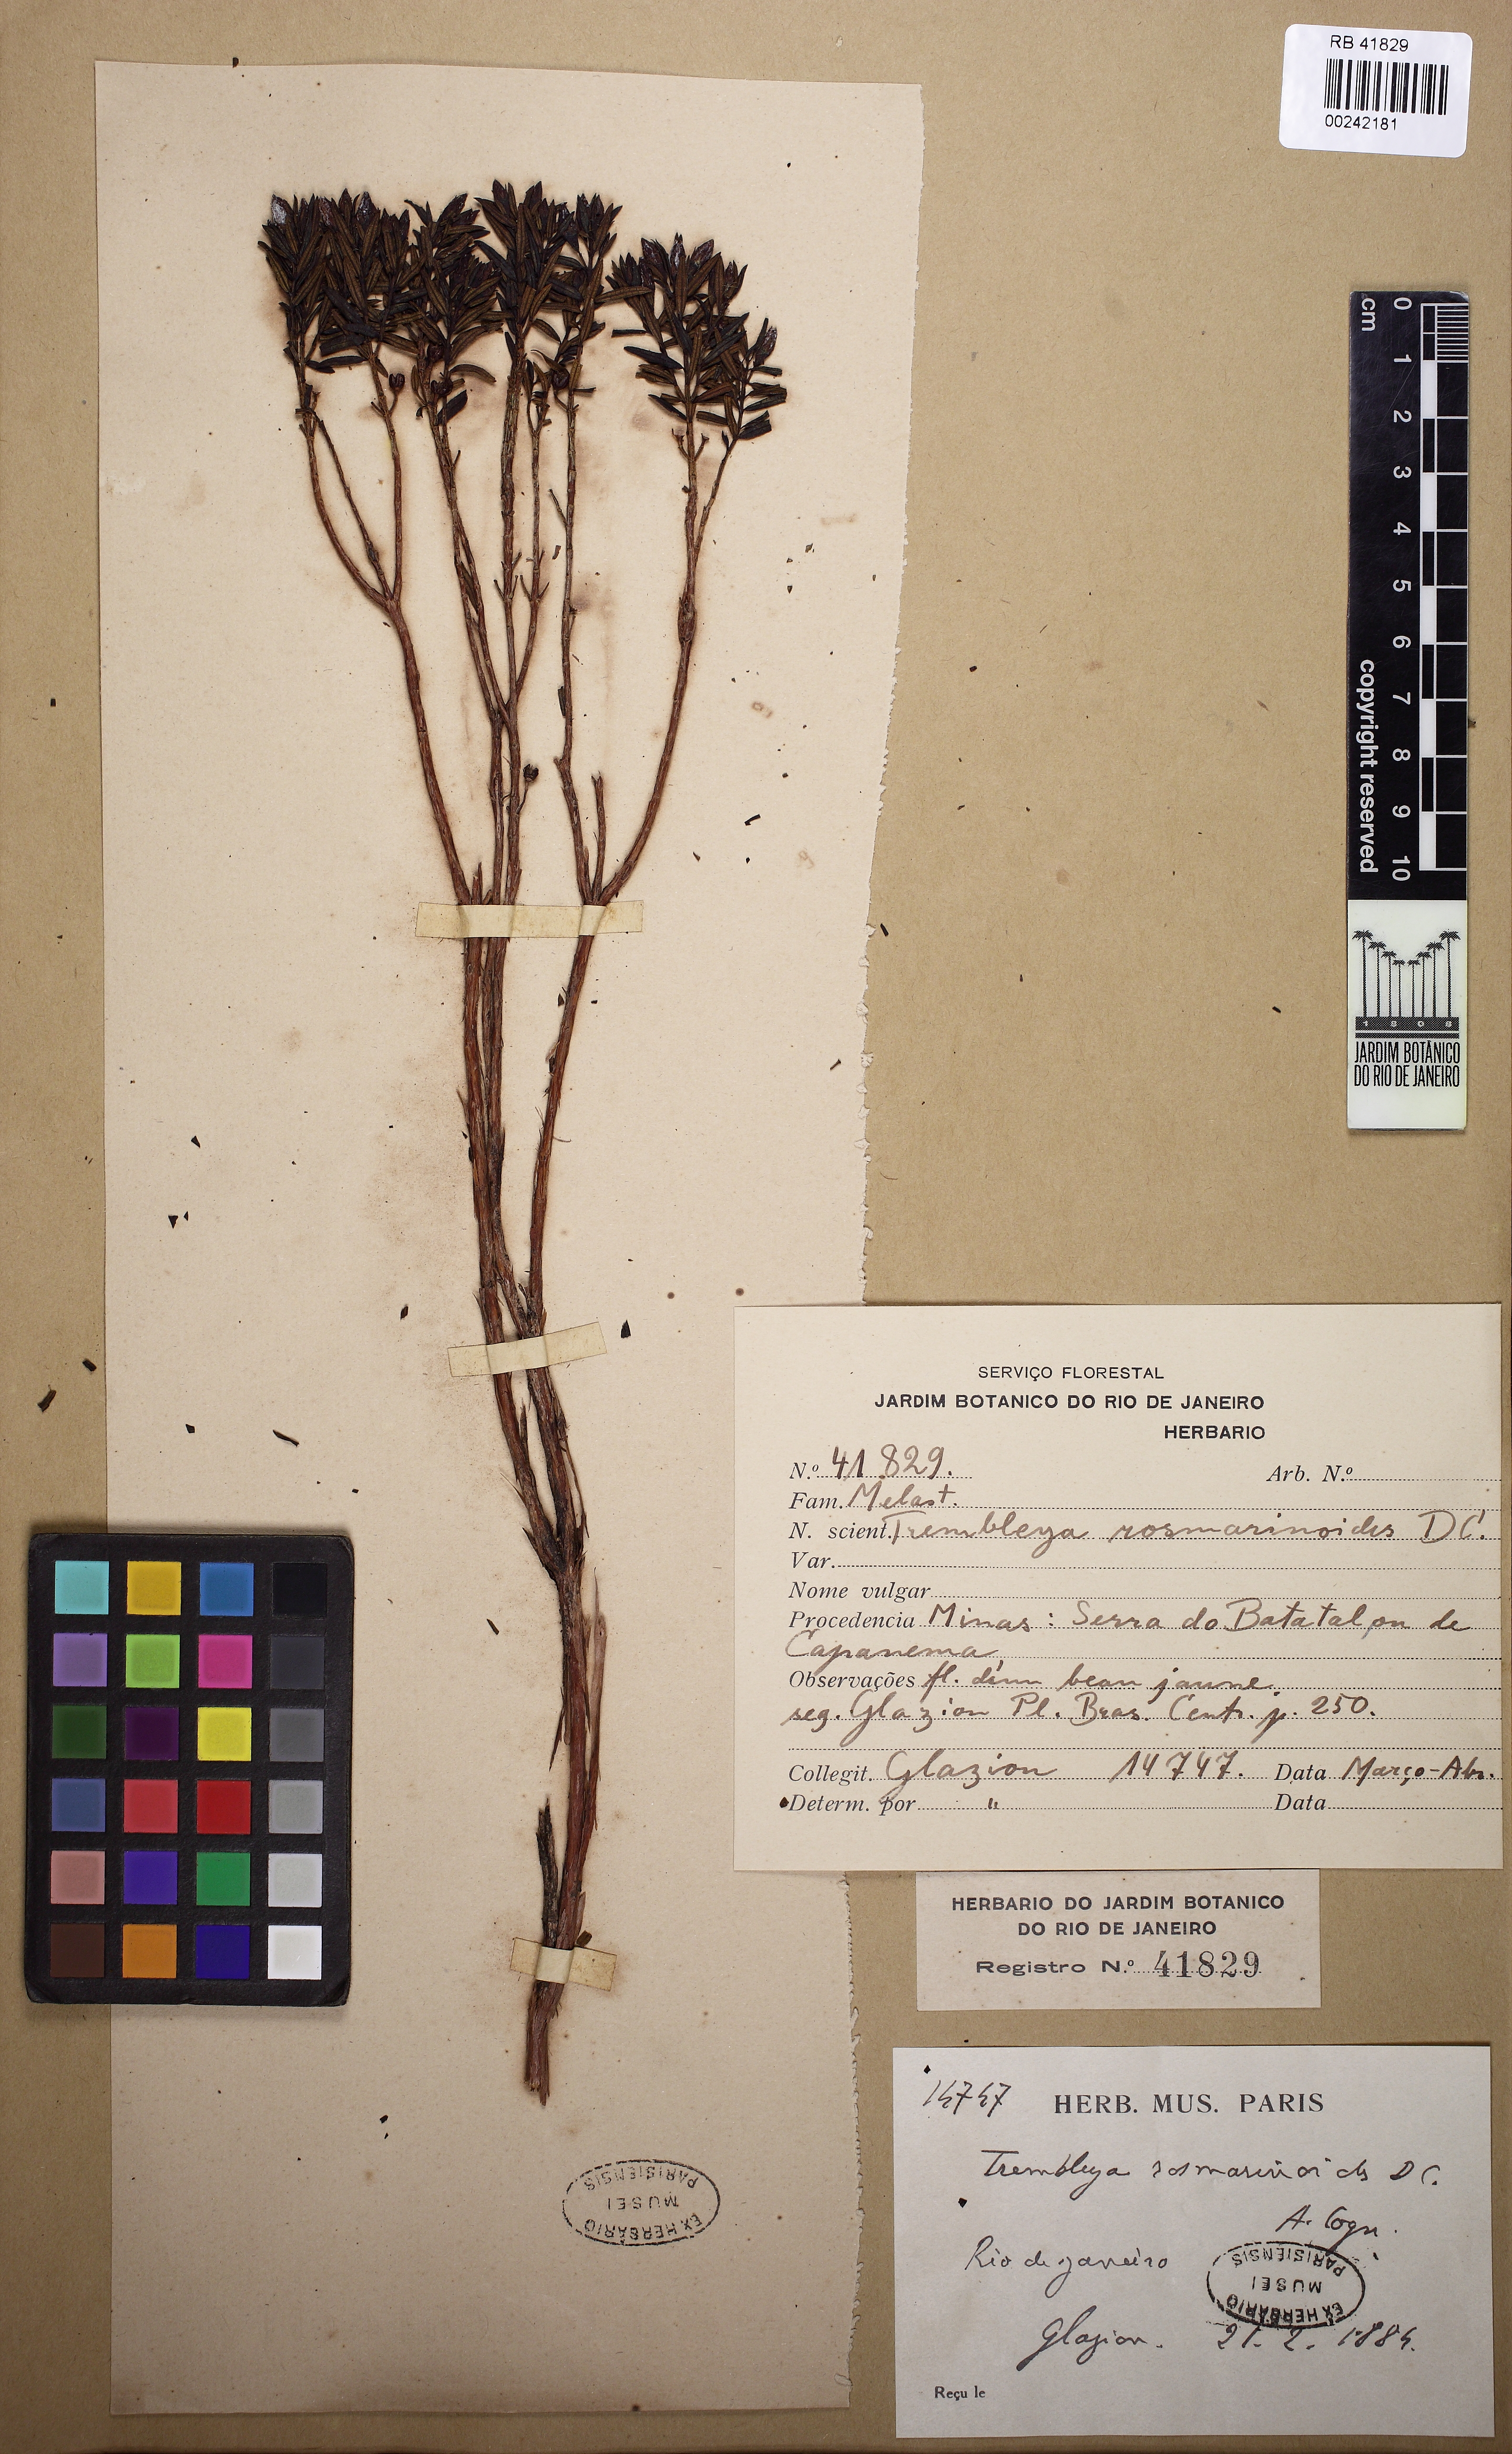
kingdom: Plantae
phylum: Tracheophyta
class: Magnoliopsida
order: Myrtales
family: Melastomataceae
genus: Microlicia
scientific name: Microlicia rosmarinoides
